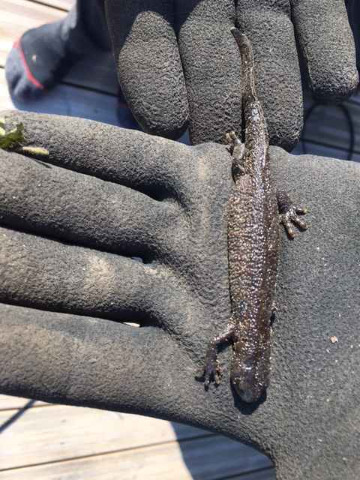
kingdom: Animalia
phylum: Chordata
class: Amphibia
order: Caudata
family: Salamandridae
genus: Triturus
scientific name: Triturus cristatus
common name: Stor vandsalamander
